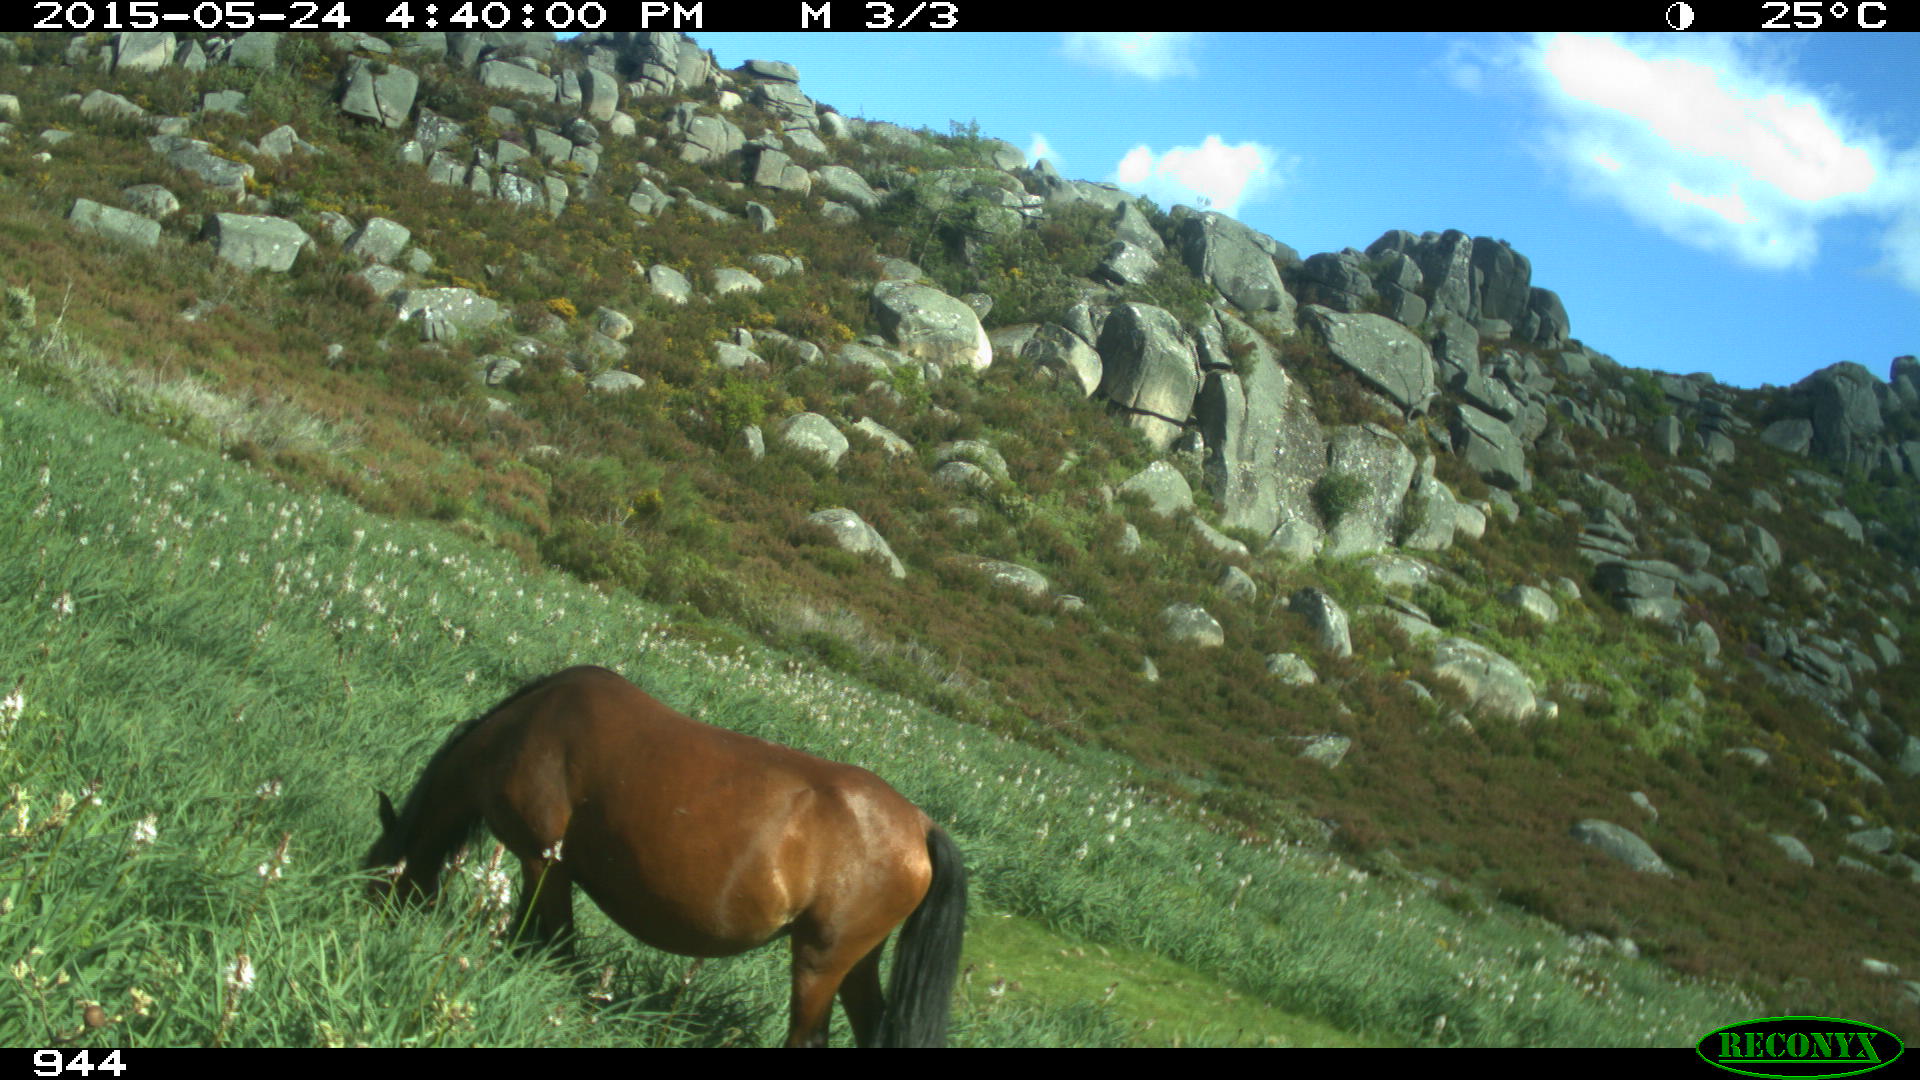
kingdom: Animalia
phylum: Chordata
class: Mammalia
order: Perissodactyla
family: Equidae
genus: Equus
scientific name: Equus caballus
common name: Horse
